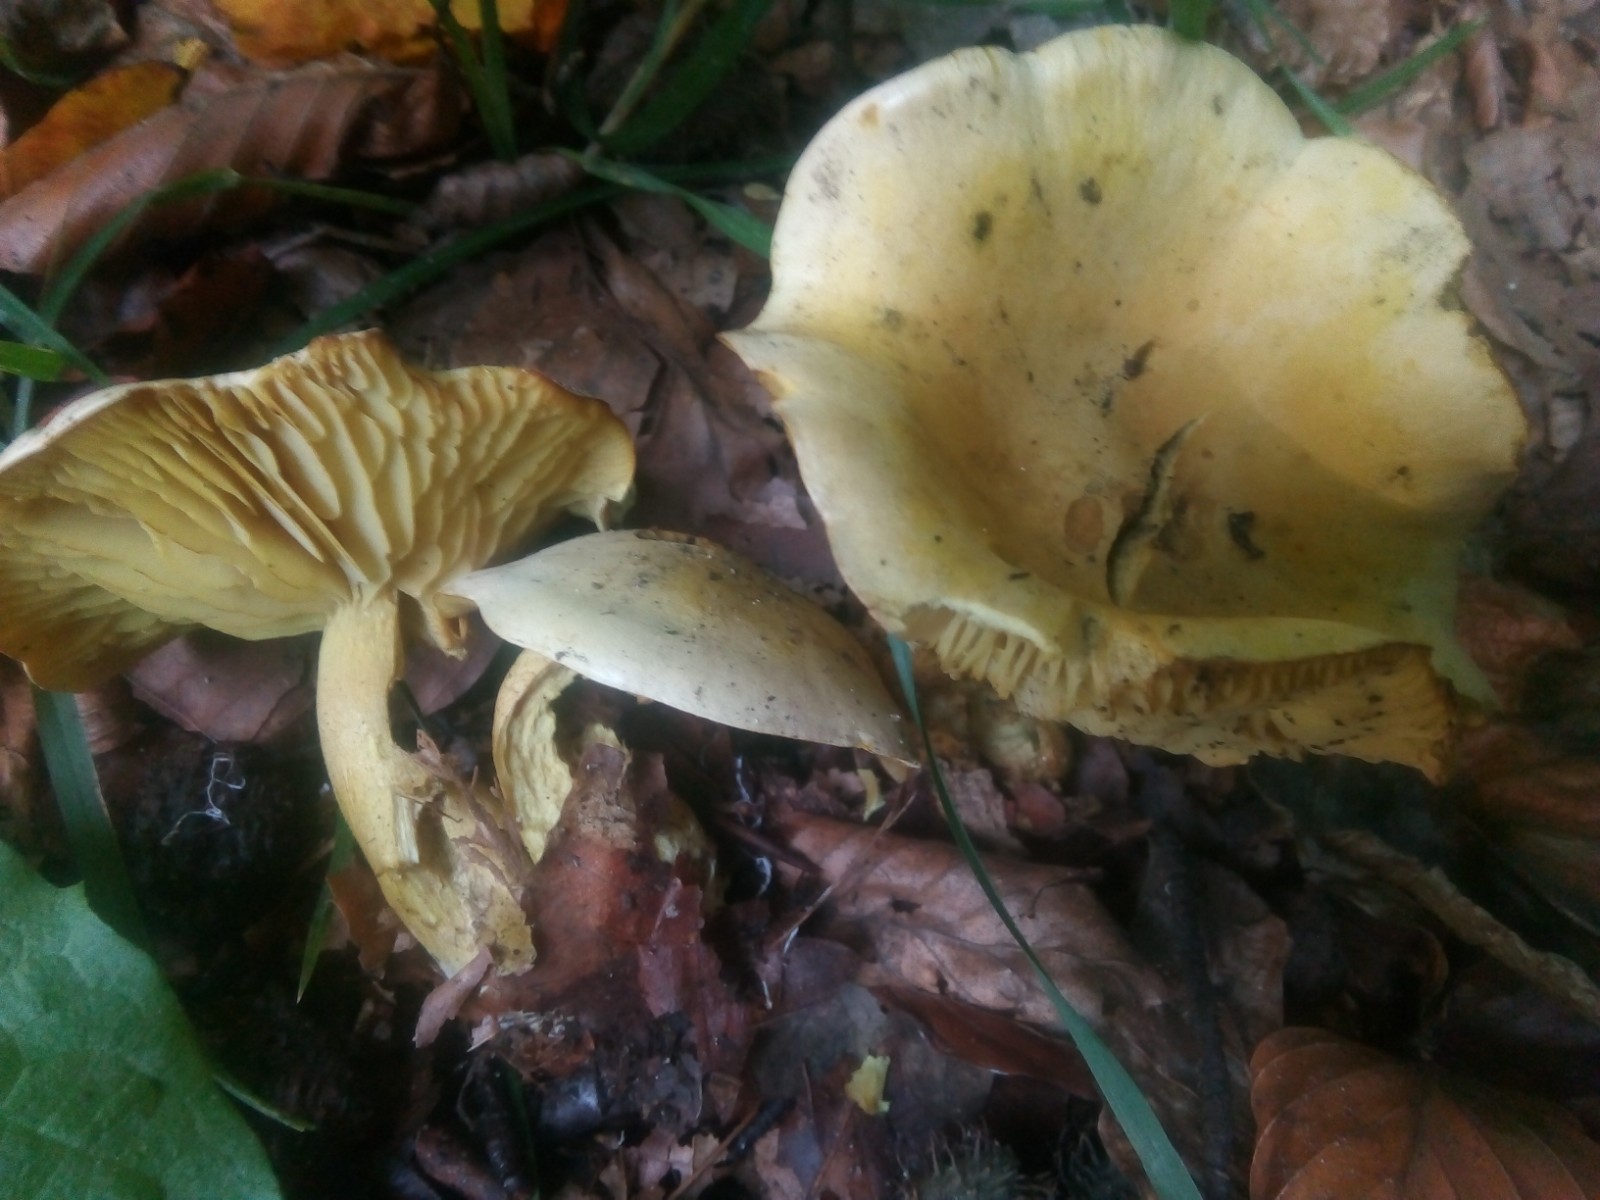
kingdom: Fungi
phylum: Basidiomycota
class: Agaricomycetes
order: Agaricales
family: Tricholomataceae
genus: Tricholoma
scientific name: Tricholoma sulphureum
